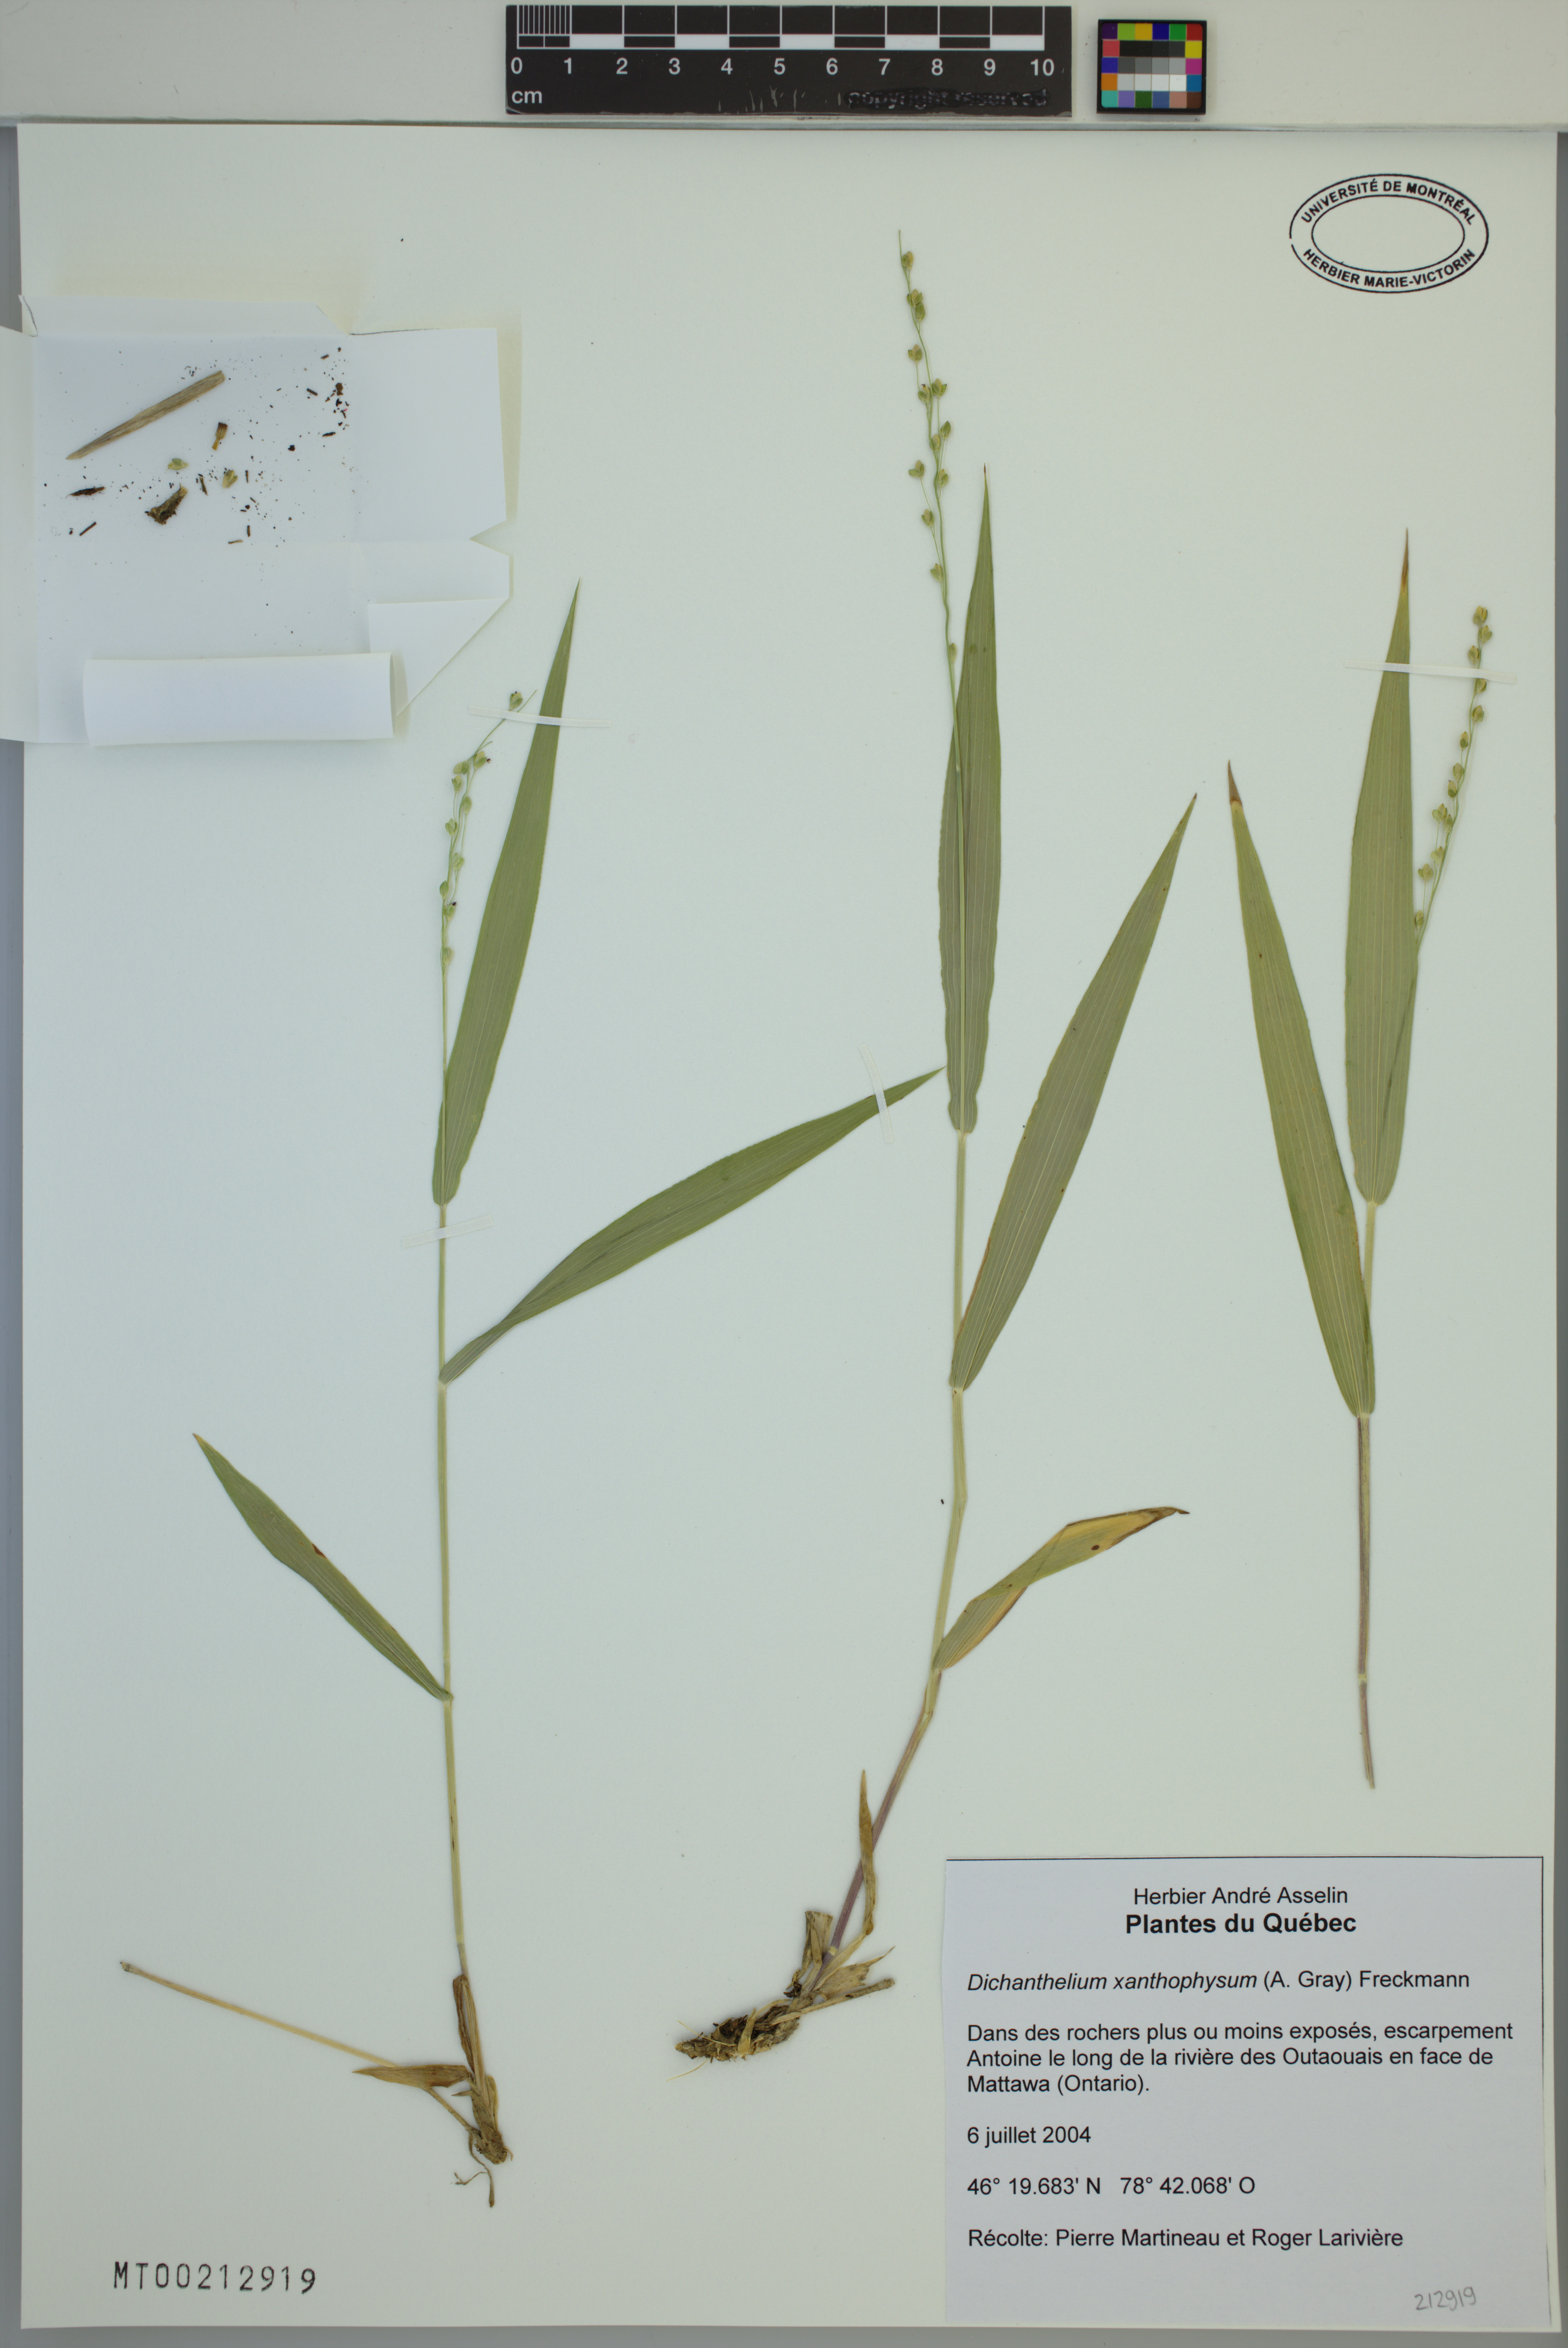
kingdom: Plantae
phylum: Tracheophyta
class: Liliopsida
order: Poales
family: Poaceae
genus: Dichanthelium
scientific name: Dichanthelium xanthophysum
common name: Pale panicgrass
